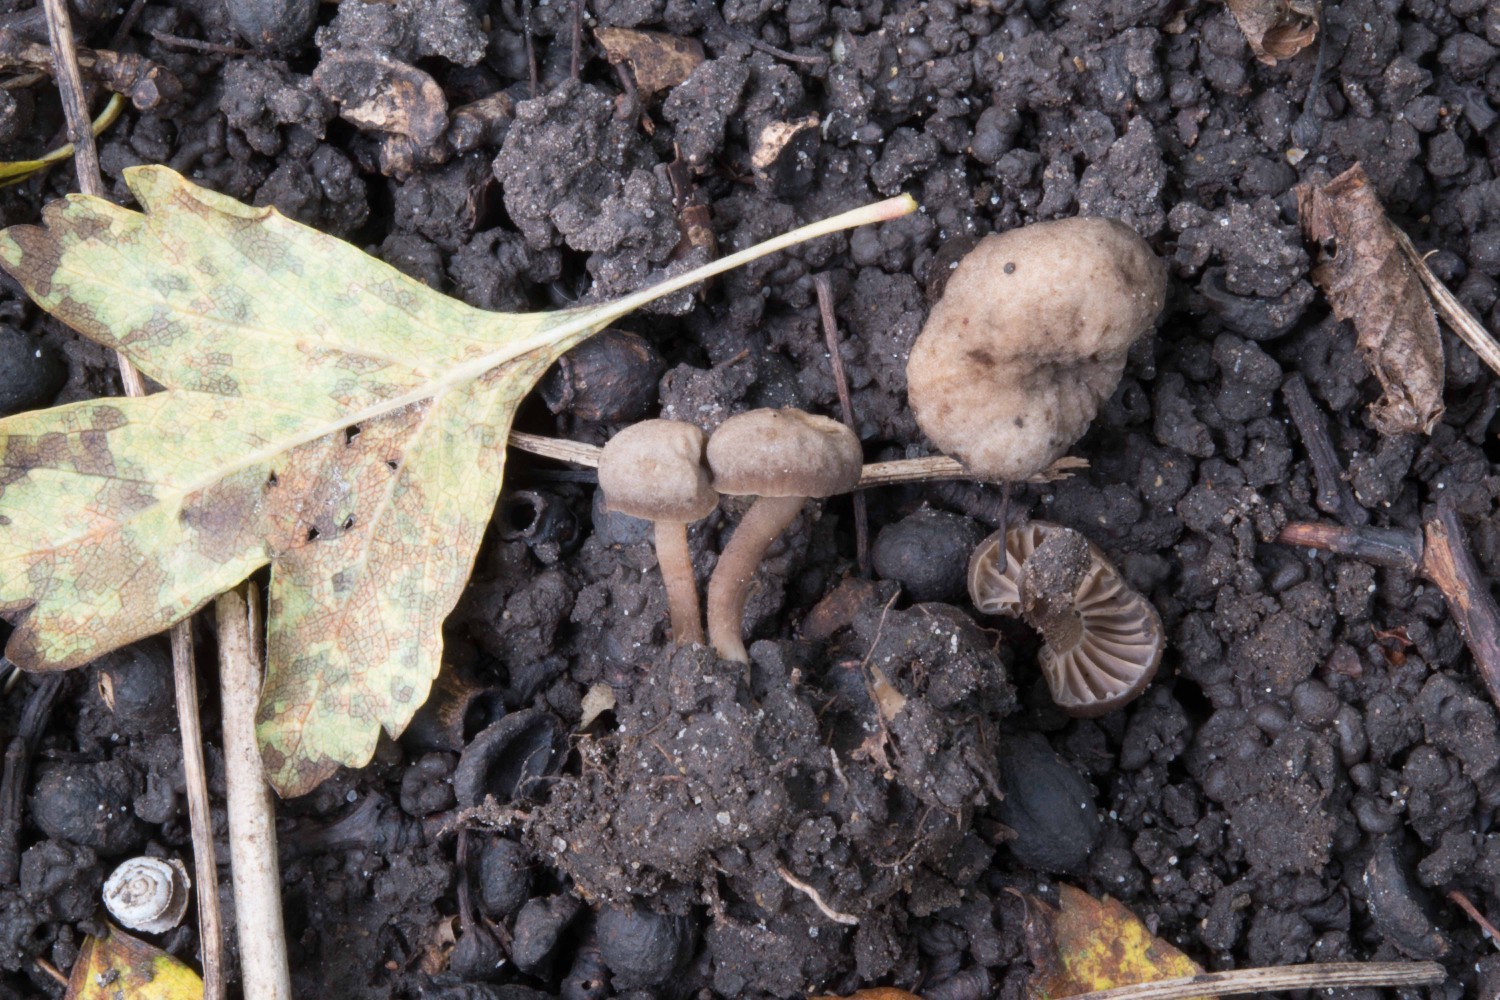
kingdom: Fungi
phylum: Basidiomycota
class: Agaricomycetes
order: Agaricales
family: Clavariaceae
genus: Hodophilus
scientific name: Hodophilus
